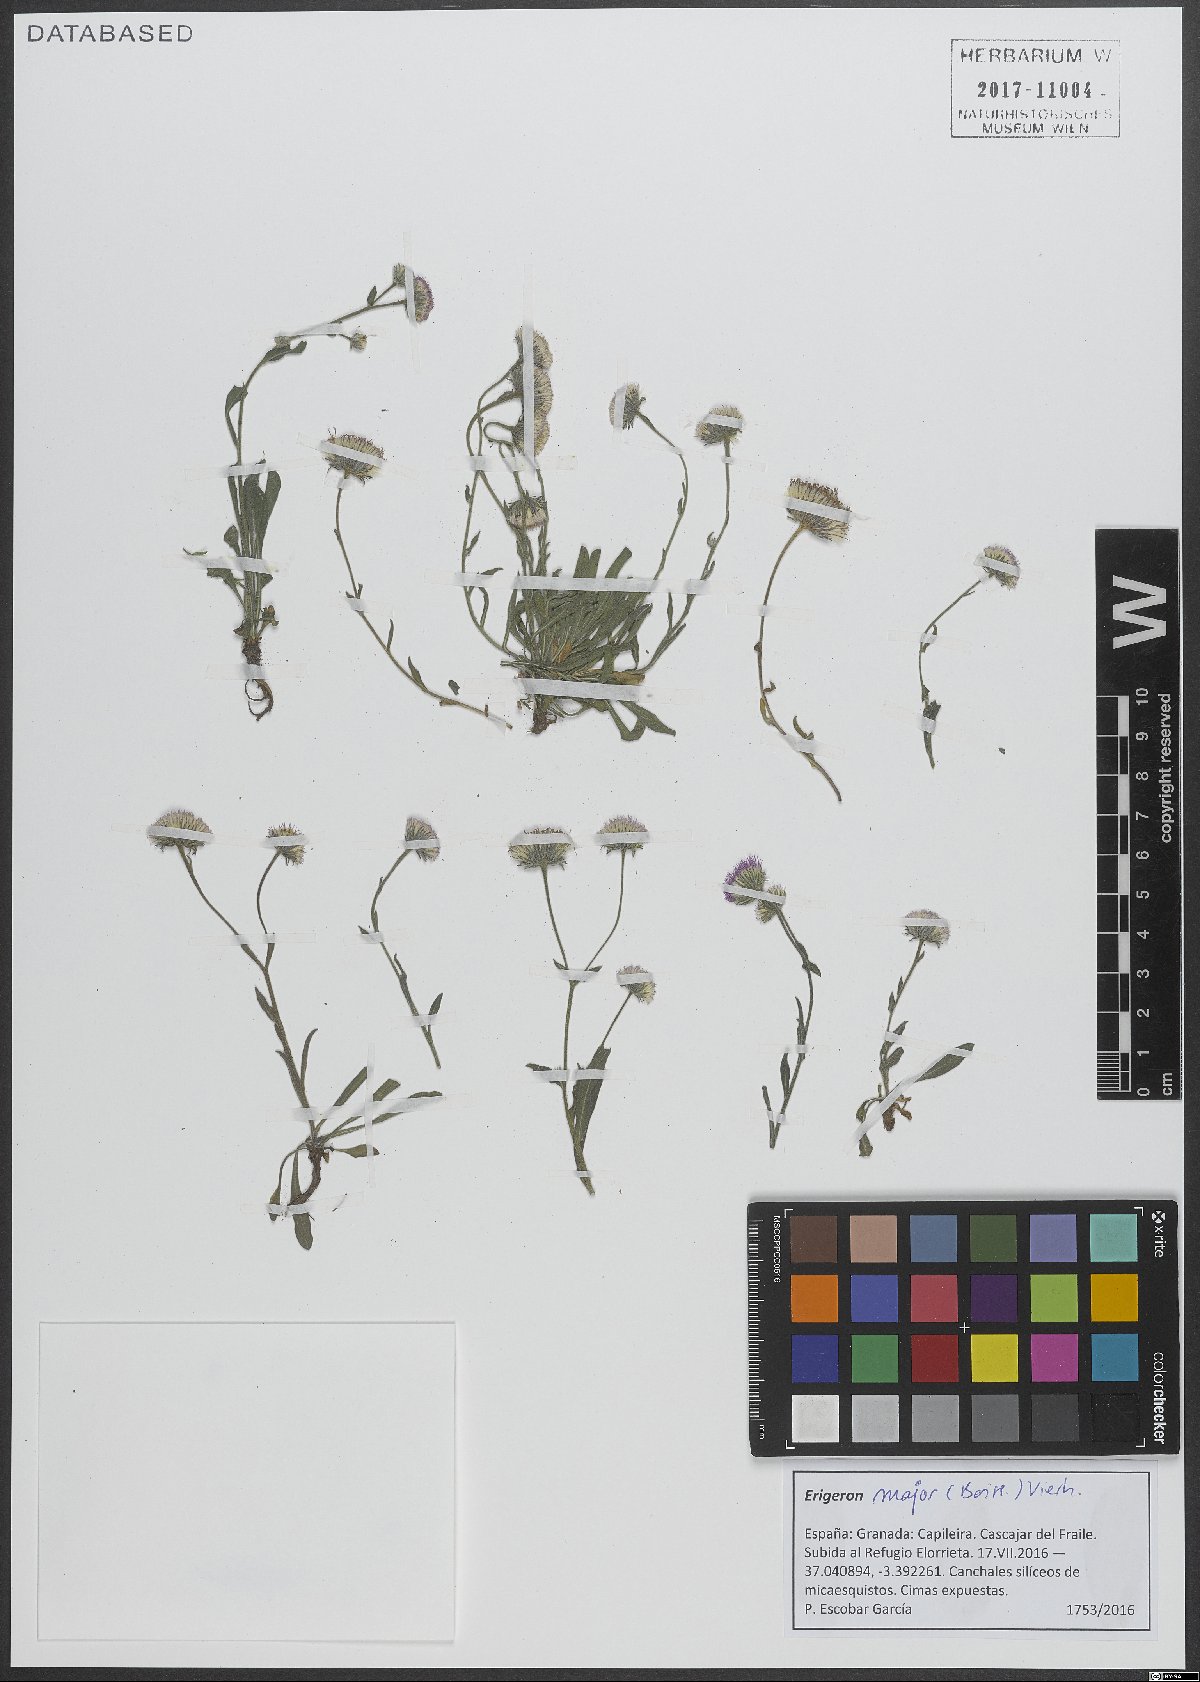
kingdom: Plantae
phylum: Tracheophyta
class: Magnoliopsida
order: Asterales
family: Asteraceae
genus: Erigeron
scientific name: Erigeron major
